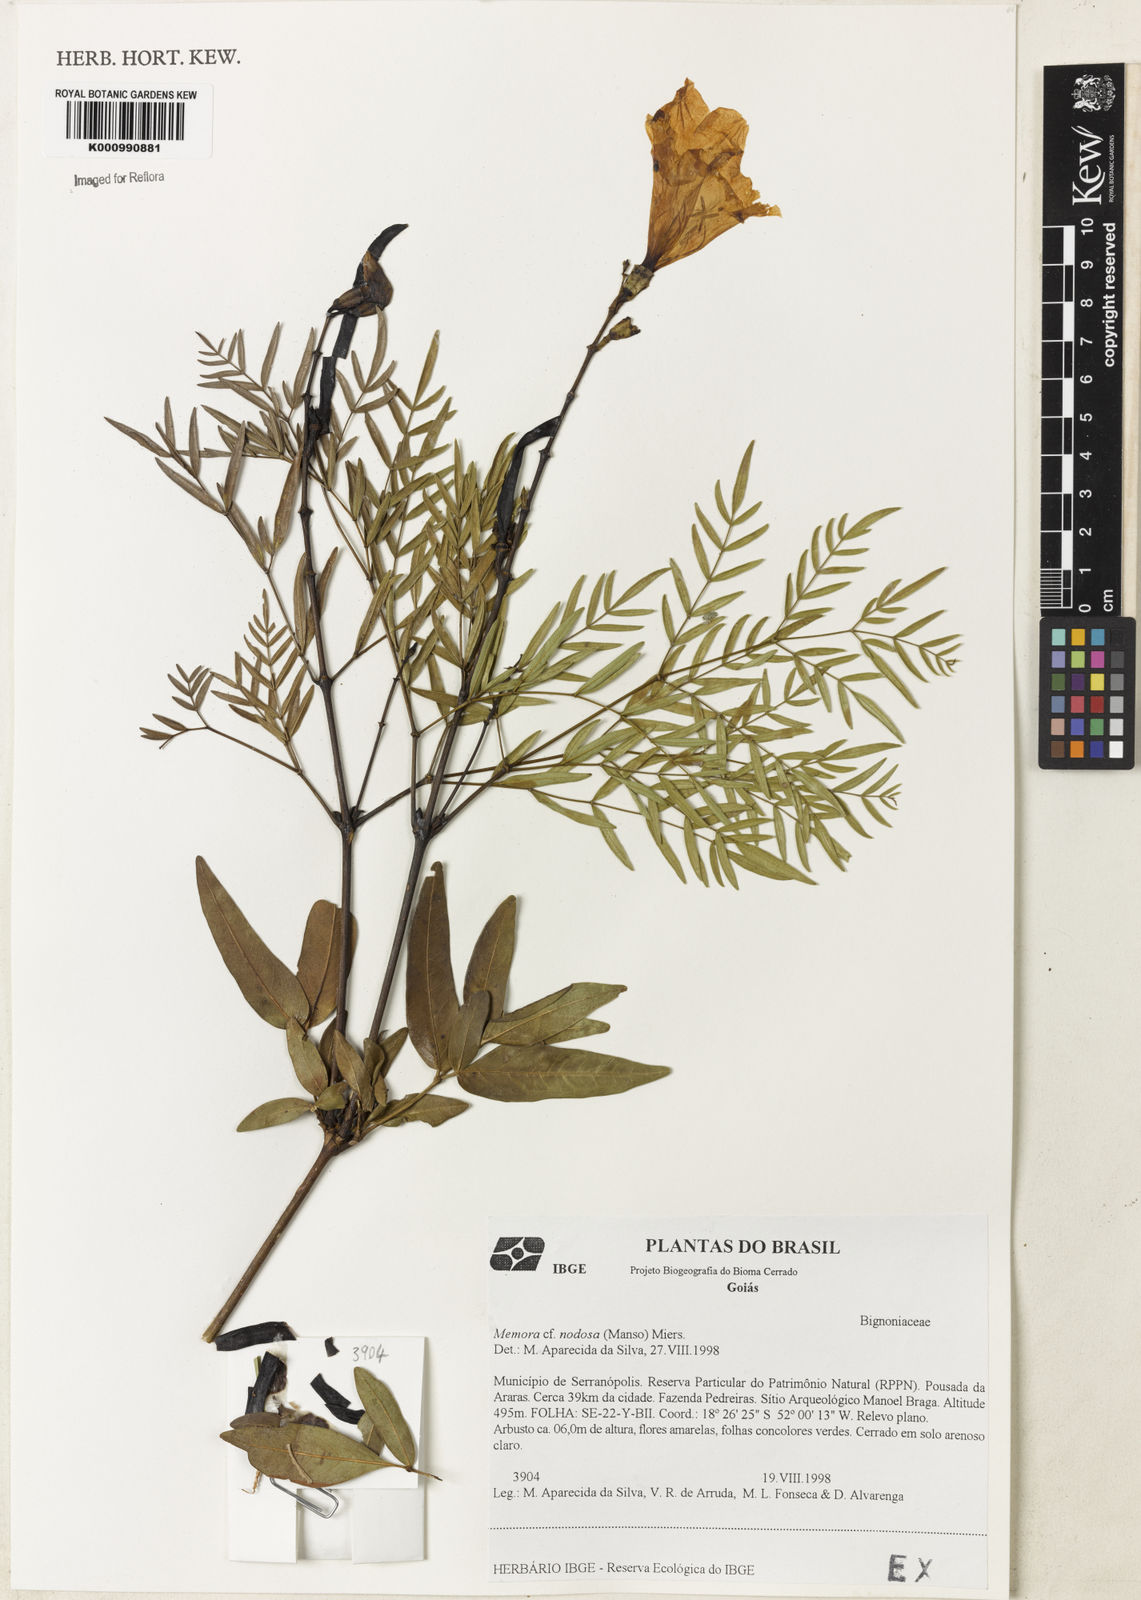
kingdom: Plantae
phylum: Tracheophyta
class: Magnoliopsida
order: Lamiales
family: Bignoniaceae
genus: Adenocalymma
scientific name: Adenocalymma nodosum
